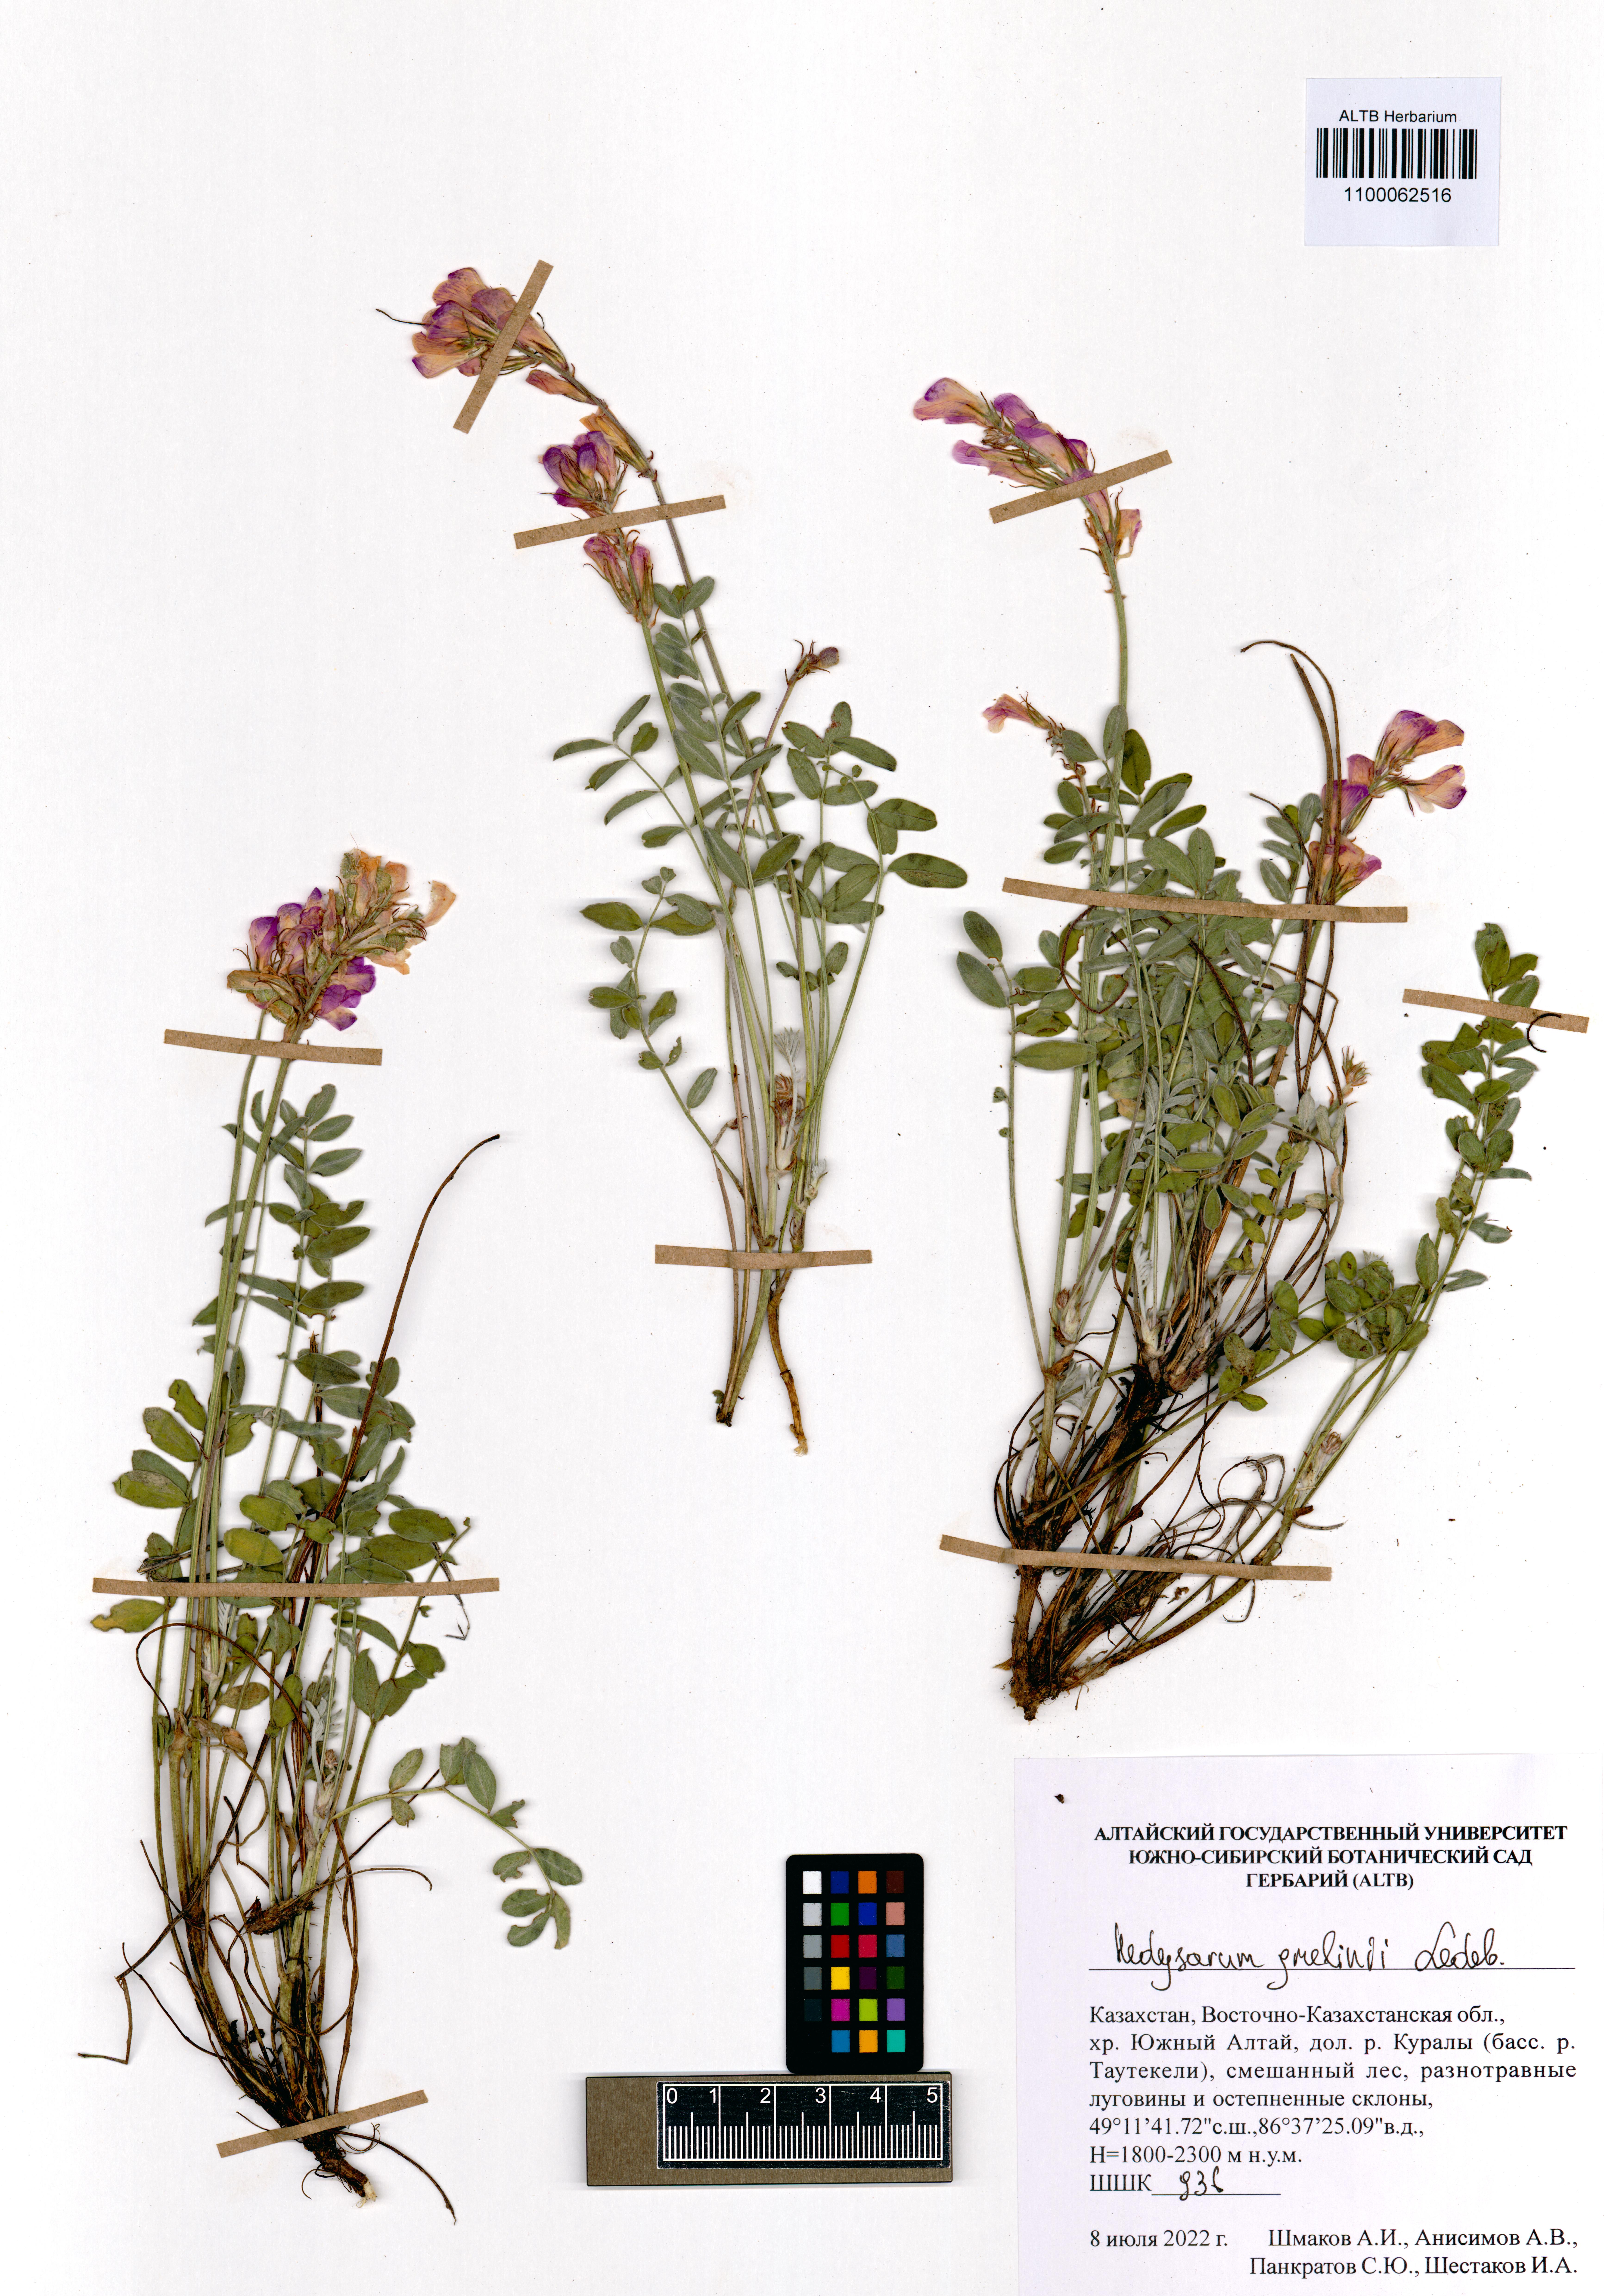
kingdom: Plantae
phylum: Tracheophyta
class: Magnoliopsida
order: Fabales
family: Fabaceae
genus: Hedysarum
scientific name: Hedysarum gmelinii
